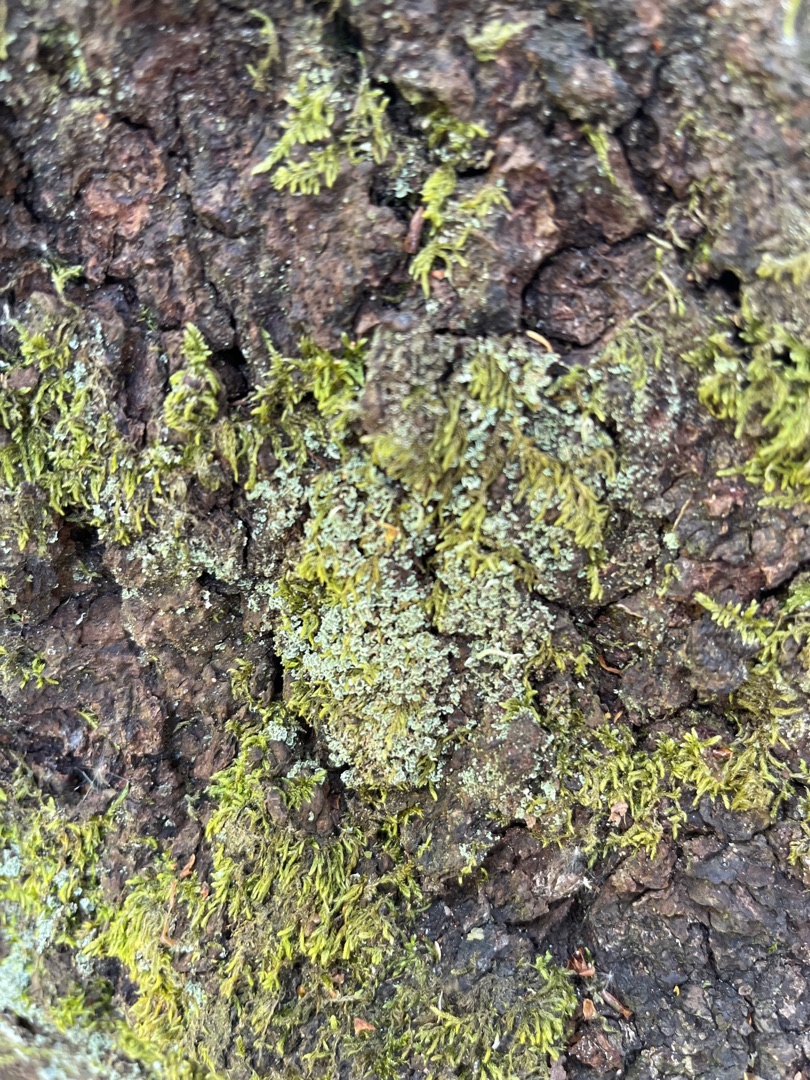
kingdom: Plantae
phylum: Bryophyta
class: Bryopsida
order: Hypnales
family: Hypnaceae
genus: Hypnum
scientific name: Hypnum cupressiforme
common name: Almindelig cypresmos
